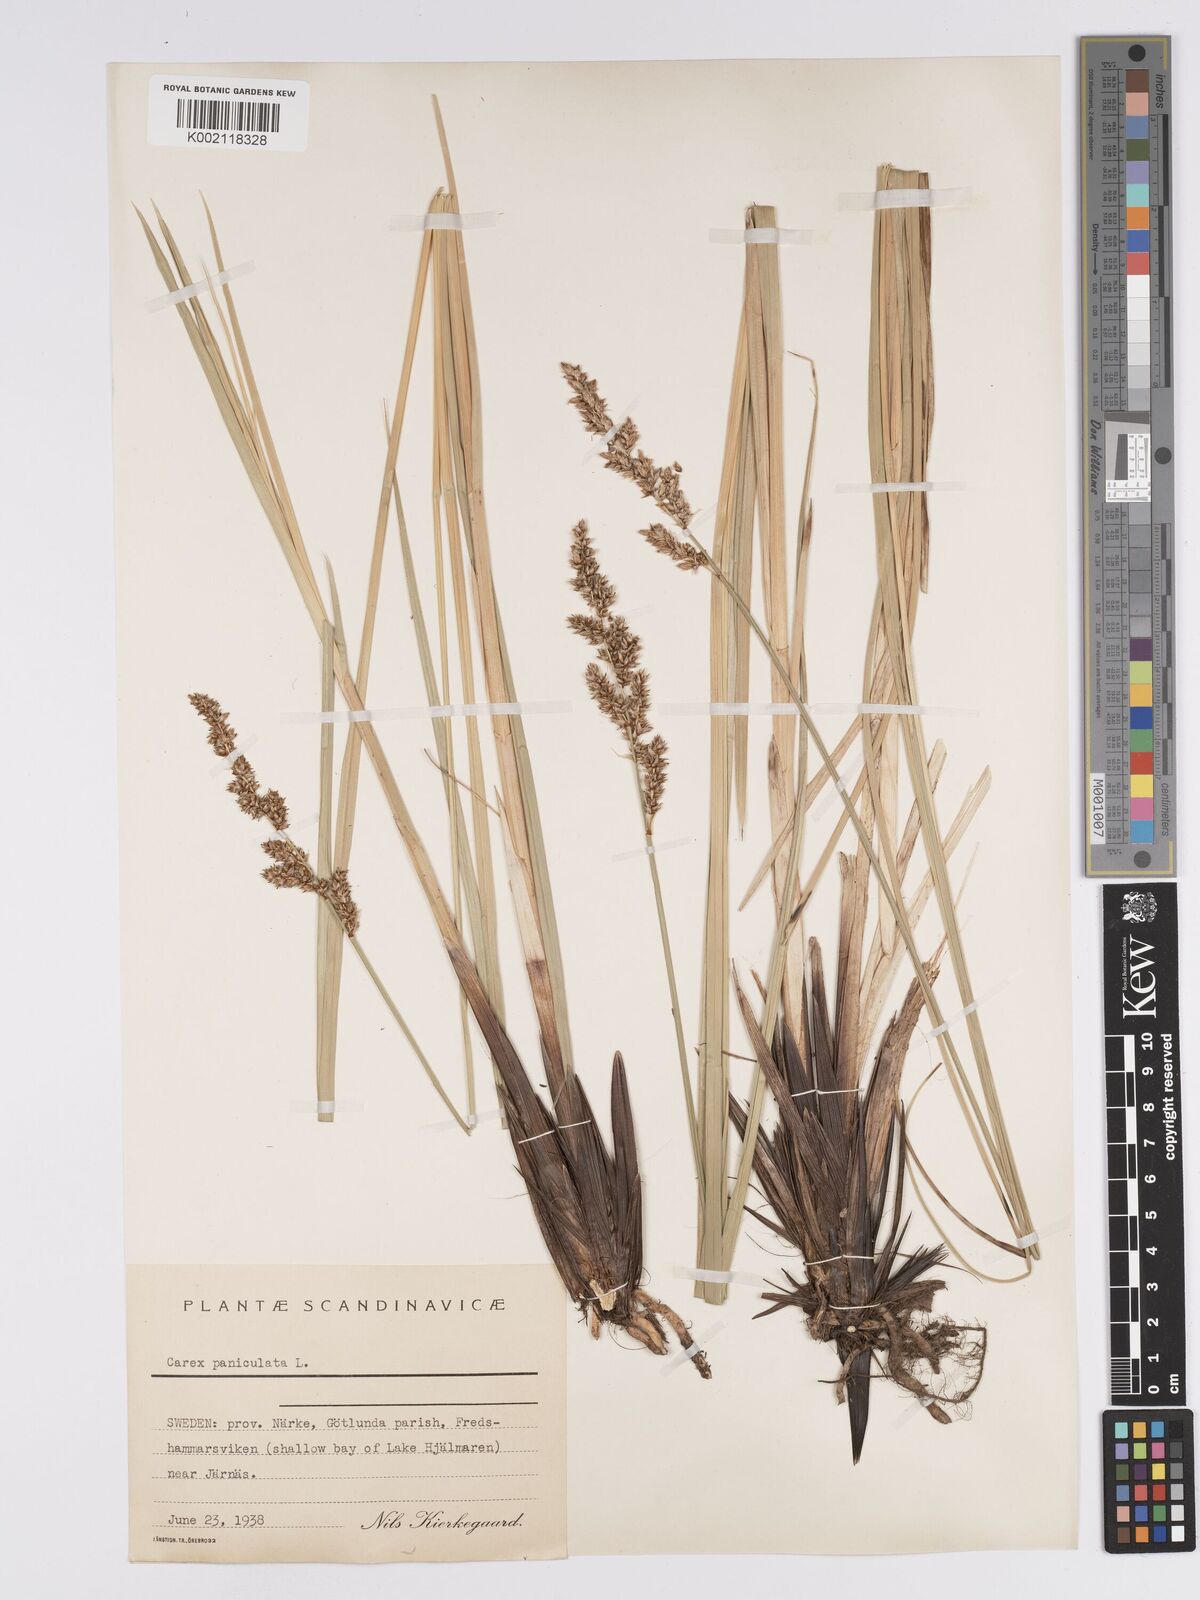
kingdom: Plantae
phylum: Tracheophyta
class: Liliopsida
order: Poales
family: Cyperaceae
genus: Carex
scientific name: Carex paniculata
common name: Greater tussock-sedge
